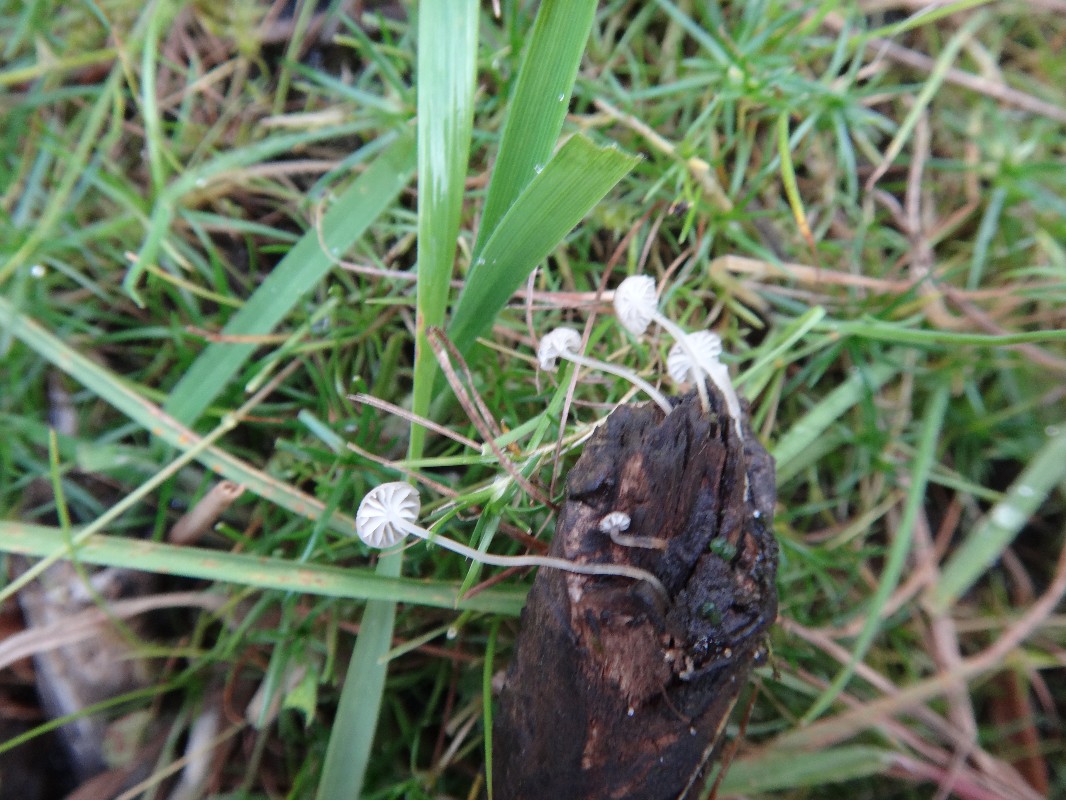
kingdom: Fungi
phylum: Basidiomycota
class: Agaricomycetes
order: Agaricales
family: Porotheleaceae
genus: Phloeomana
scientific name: Phloeomana speirea
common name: kvist-huesvamp
